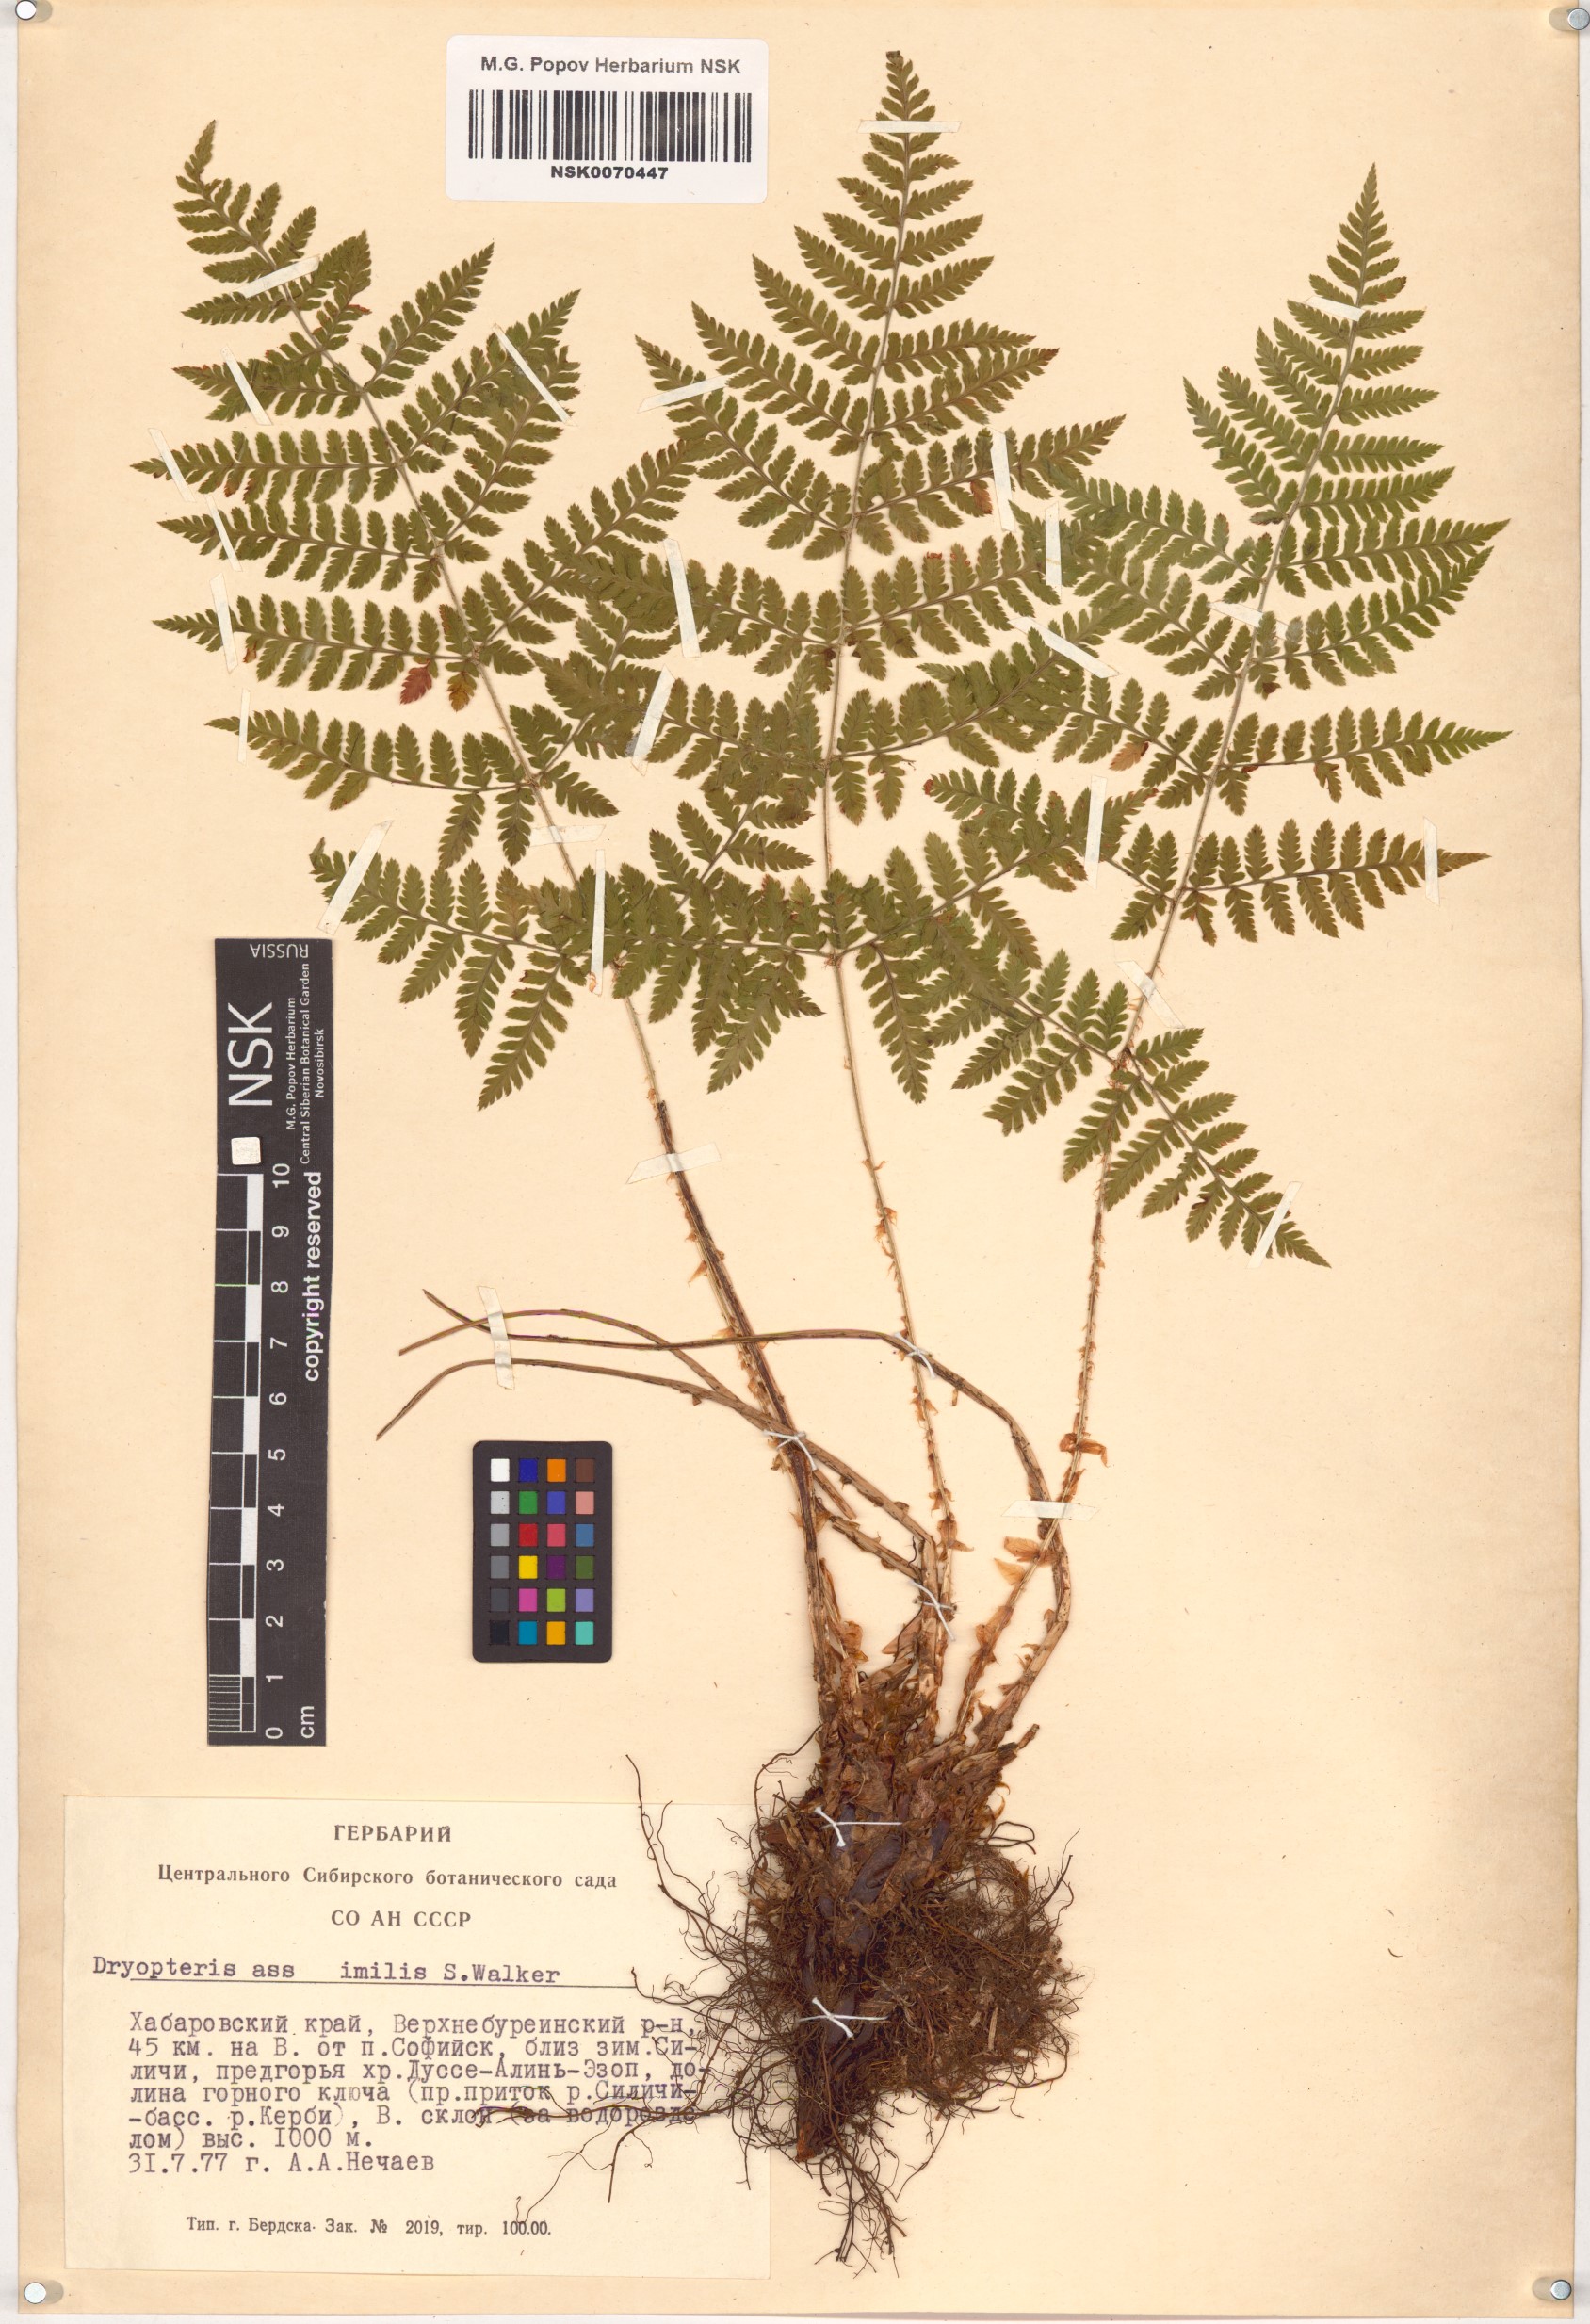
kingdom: Plantae
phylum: Tracheophyta
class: Polypodiopsida
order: Polypodiales
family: Dryopteridaceae
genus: Dryopteris
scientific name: Dryopteris expansa
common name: Northern buckler fern
